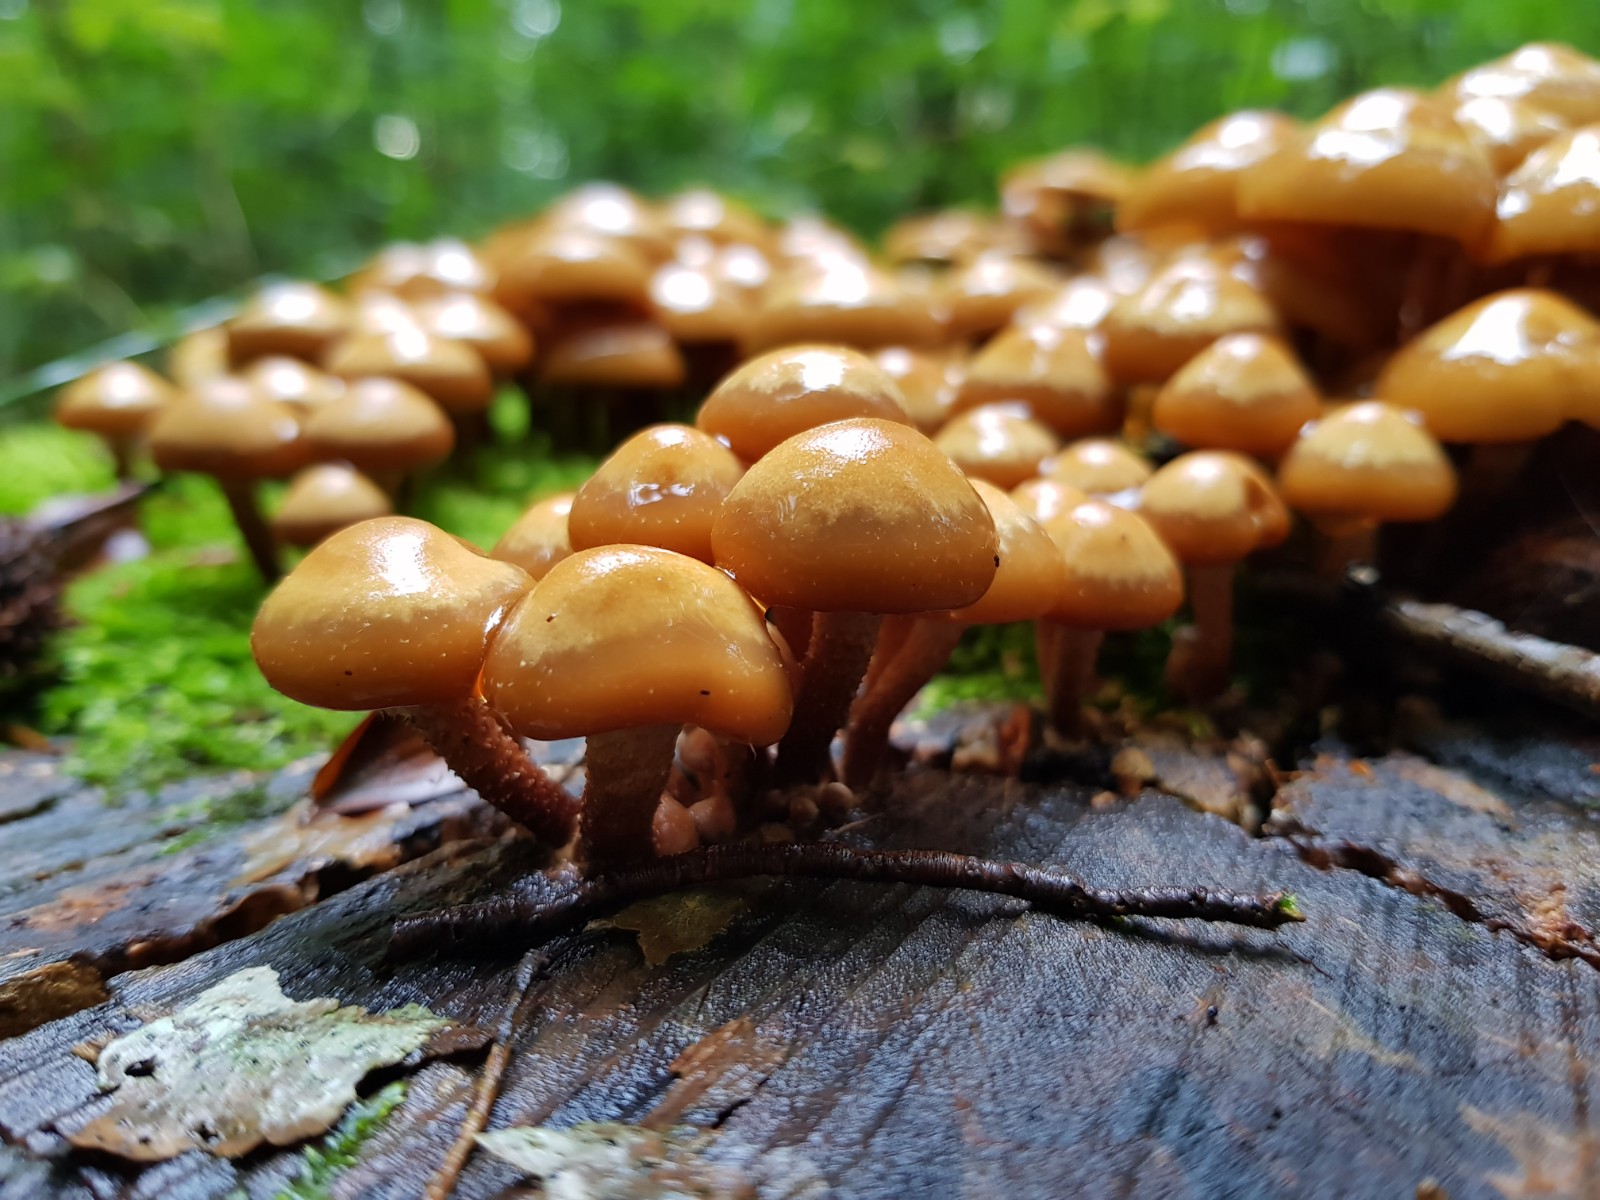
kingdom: Fungi
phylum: Basidiomycota
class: Agaricomycetes
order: Agaricales
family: Strophariaceae
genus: Kuehneromyces
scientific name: Kuehneromyces mutabilis
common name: foranderlig skælhat
